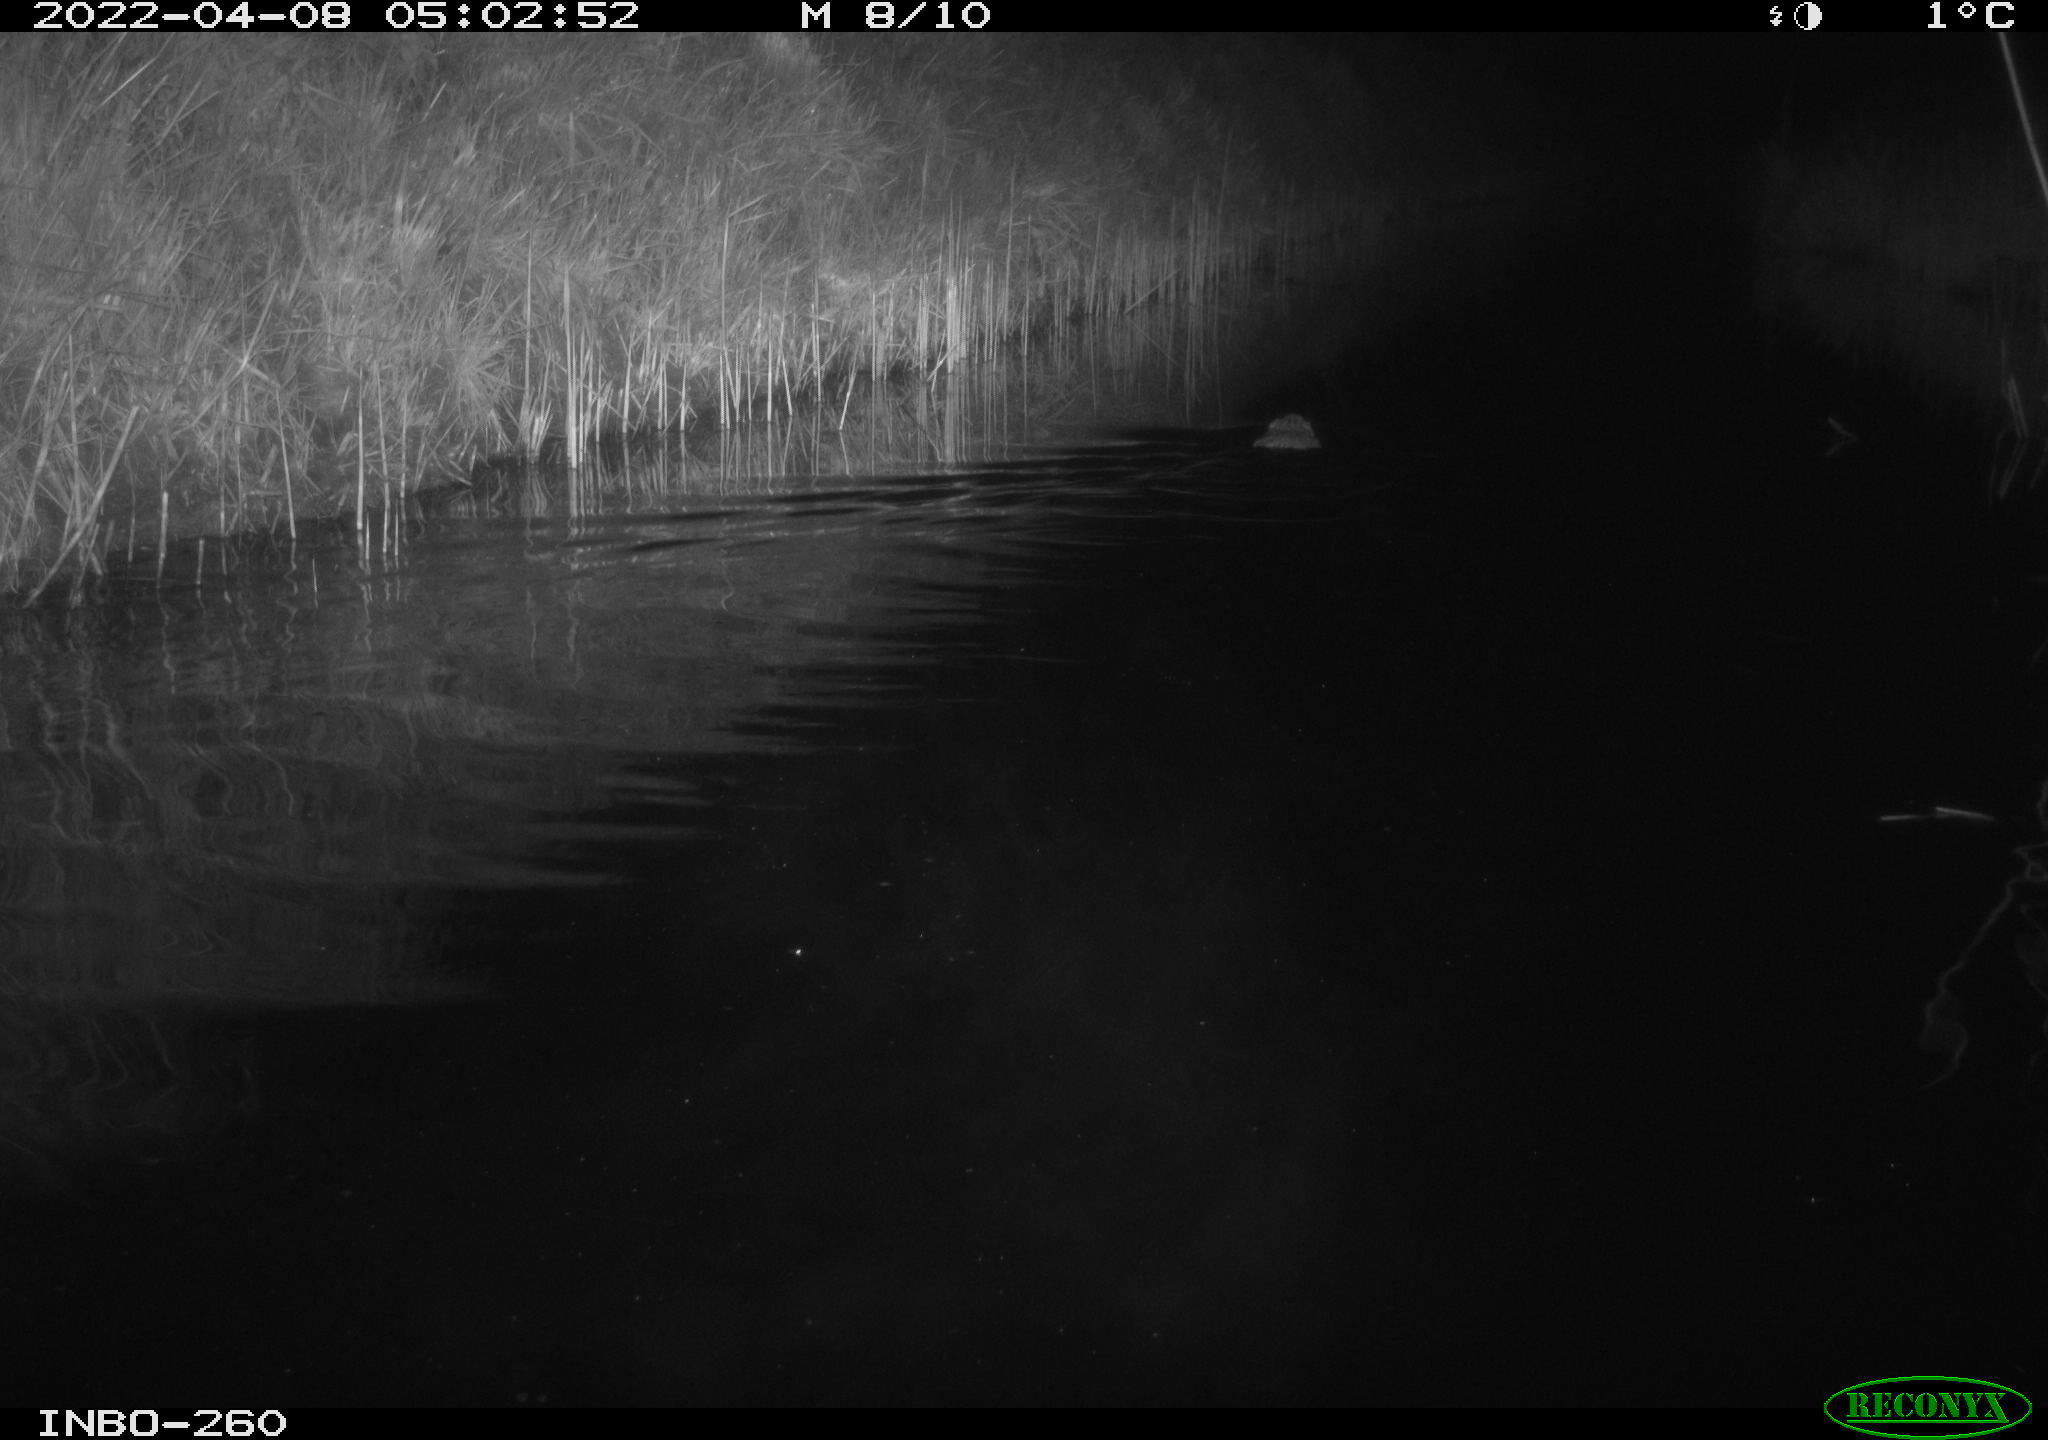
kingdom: Animalia
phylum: Chordata
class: Mammalia
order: Rodentia
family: Cricetidae
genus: Ondatra
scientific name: Ondatra zibethicus
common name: Muskrat
